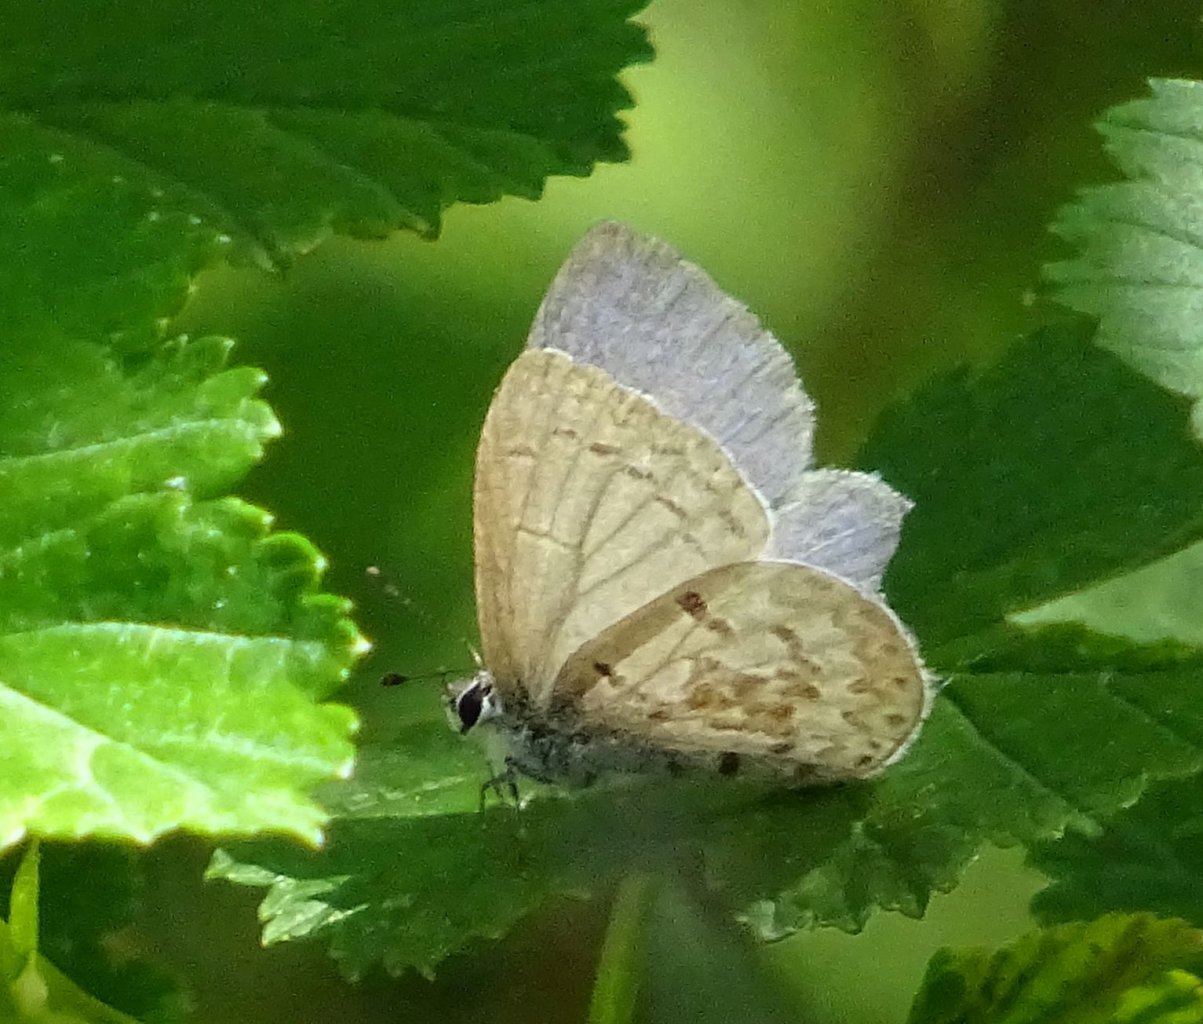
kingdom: Animalia
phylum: Arthropoda
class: Insecta
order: Lepidoptera
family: Lycaenidae
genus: Celastrina
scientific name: Celastrina
